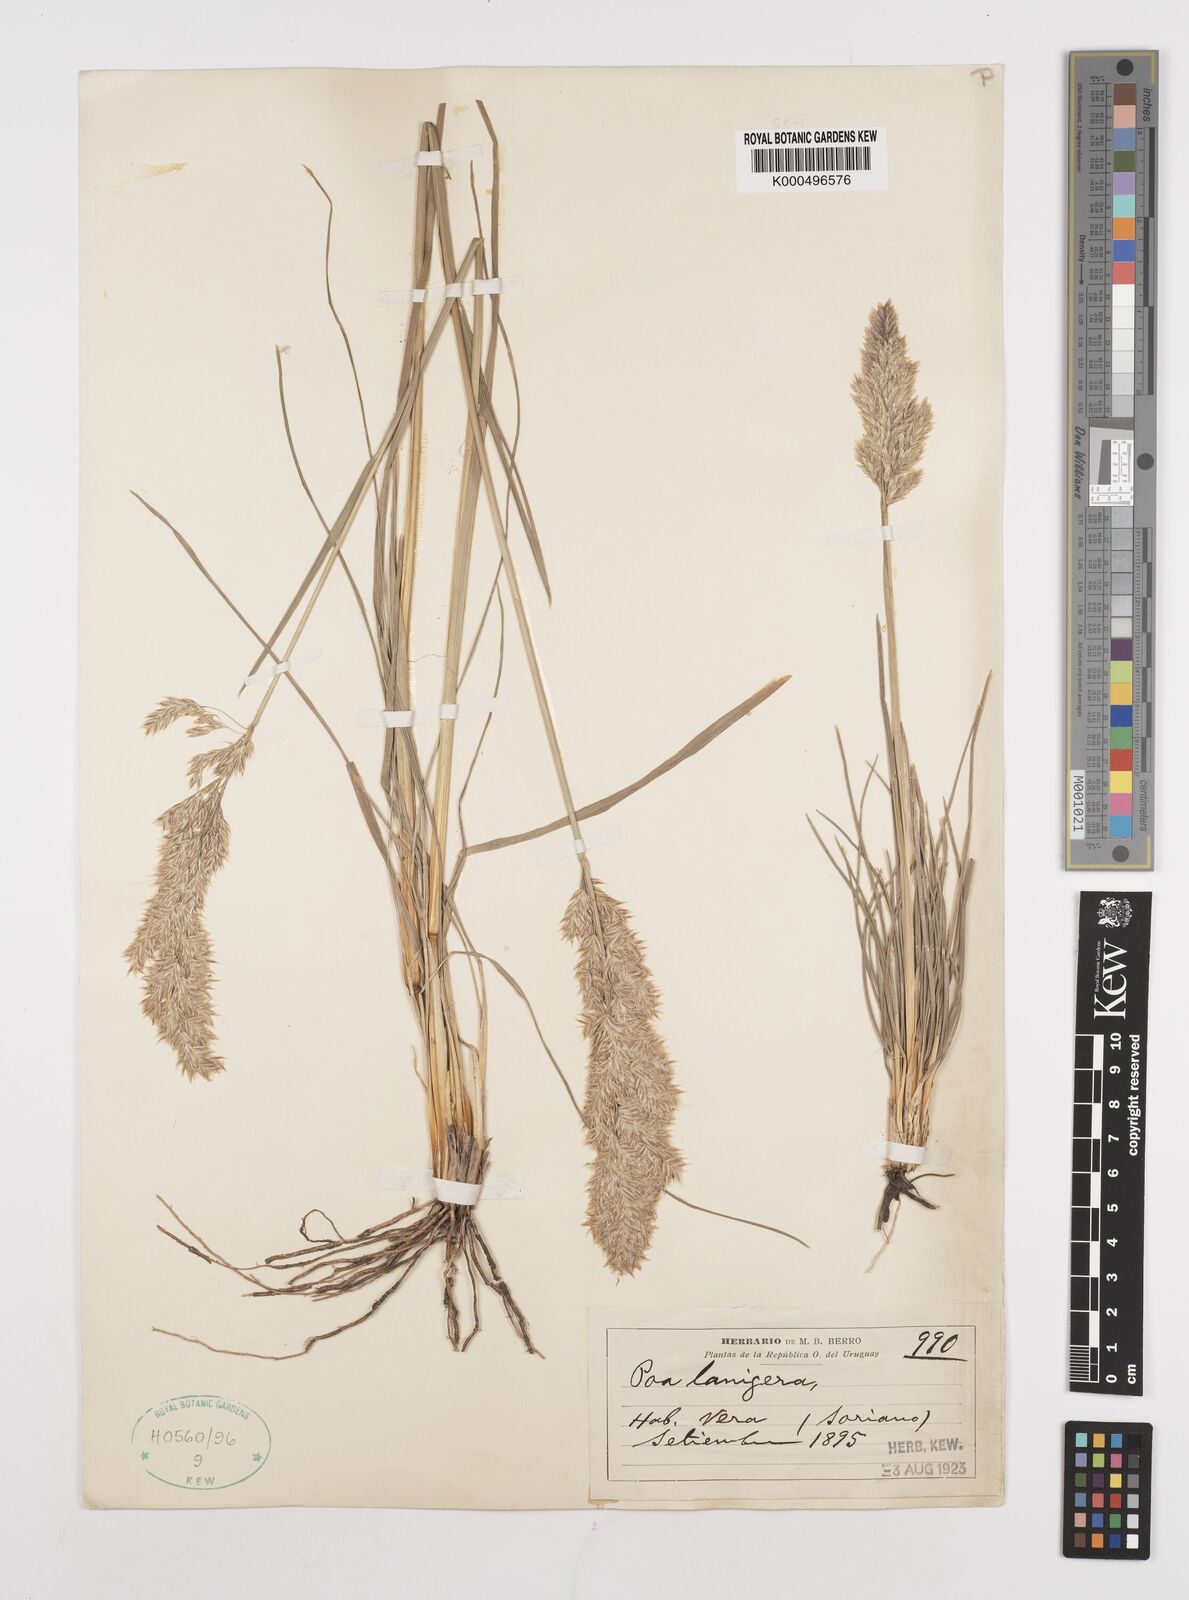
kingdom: Plantae
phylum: Tracheophyta
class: Liliopsida
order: Poales
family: Poaceae
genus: Poa
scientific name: Poa lanigera
